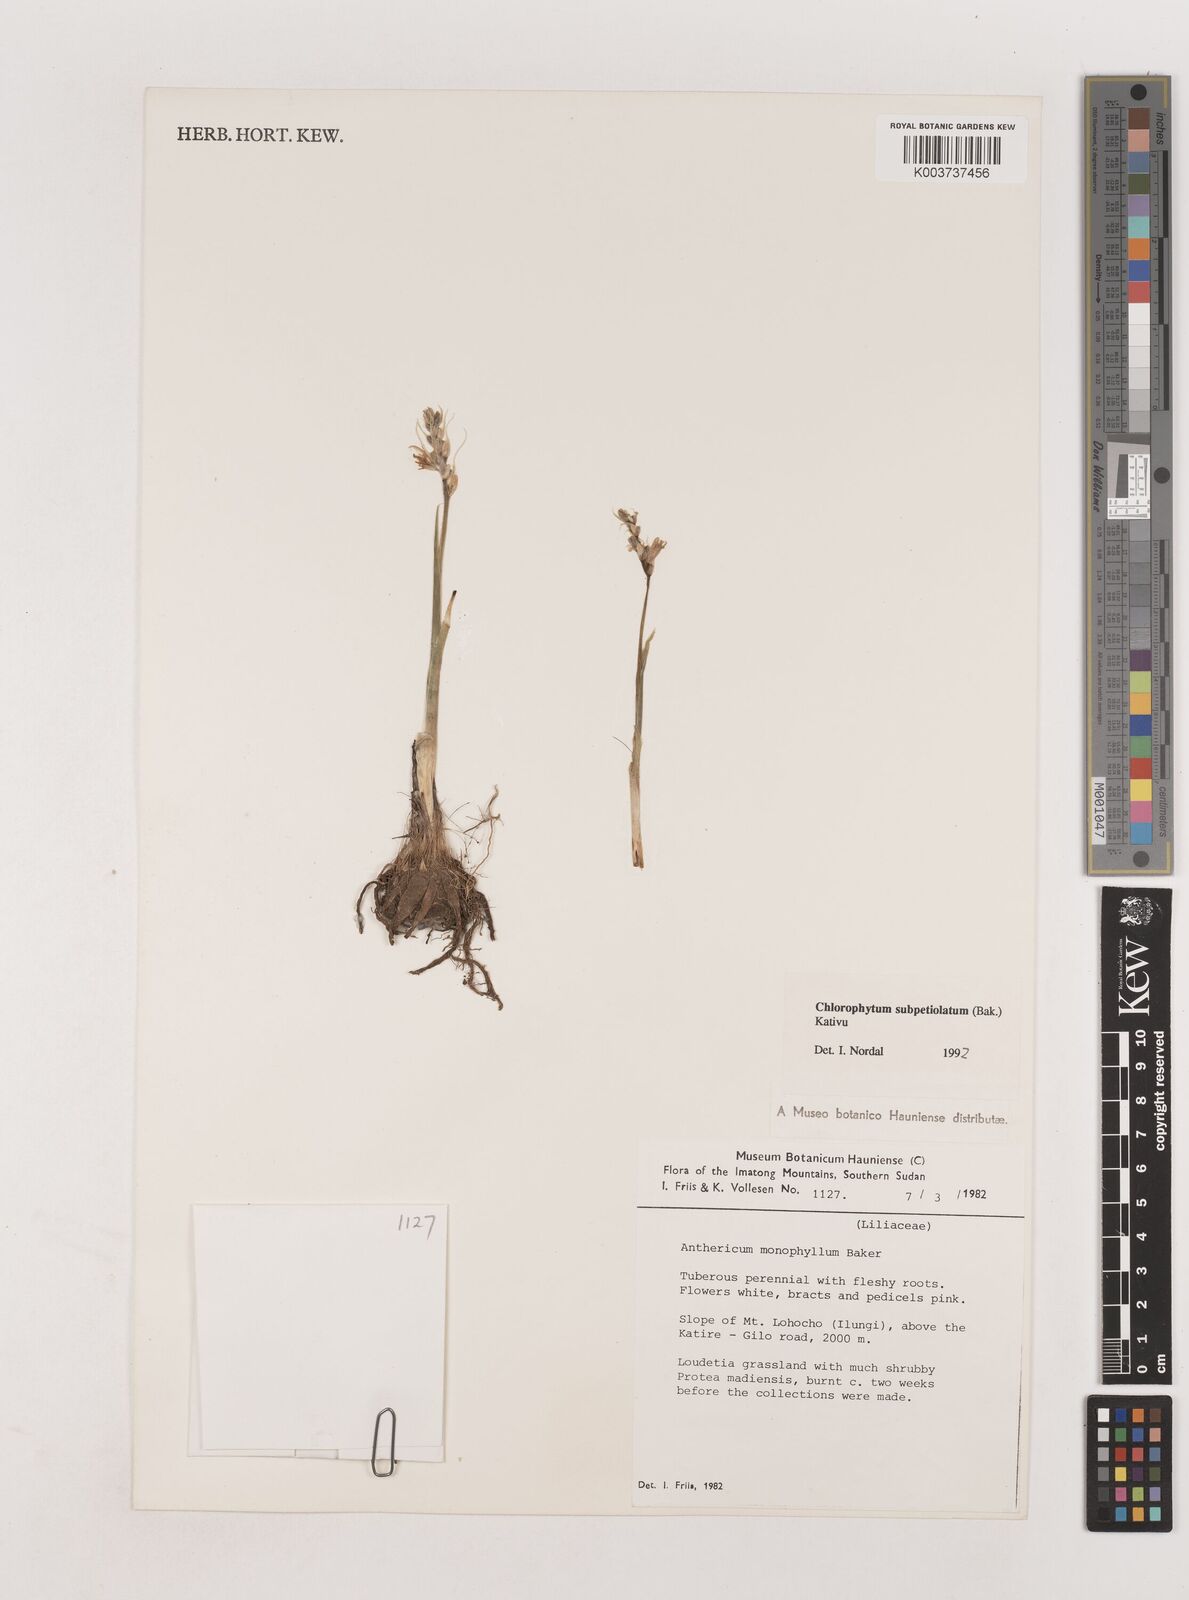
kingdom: Plantae
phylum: Tracheophyta
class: Liliopsida
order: Asparagales
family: Asparagaceae
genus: Chlorophytum
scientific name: Chlorophytum subpetiolatum
